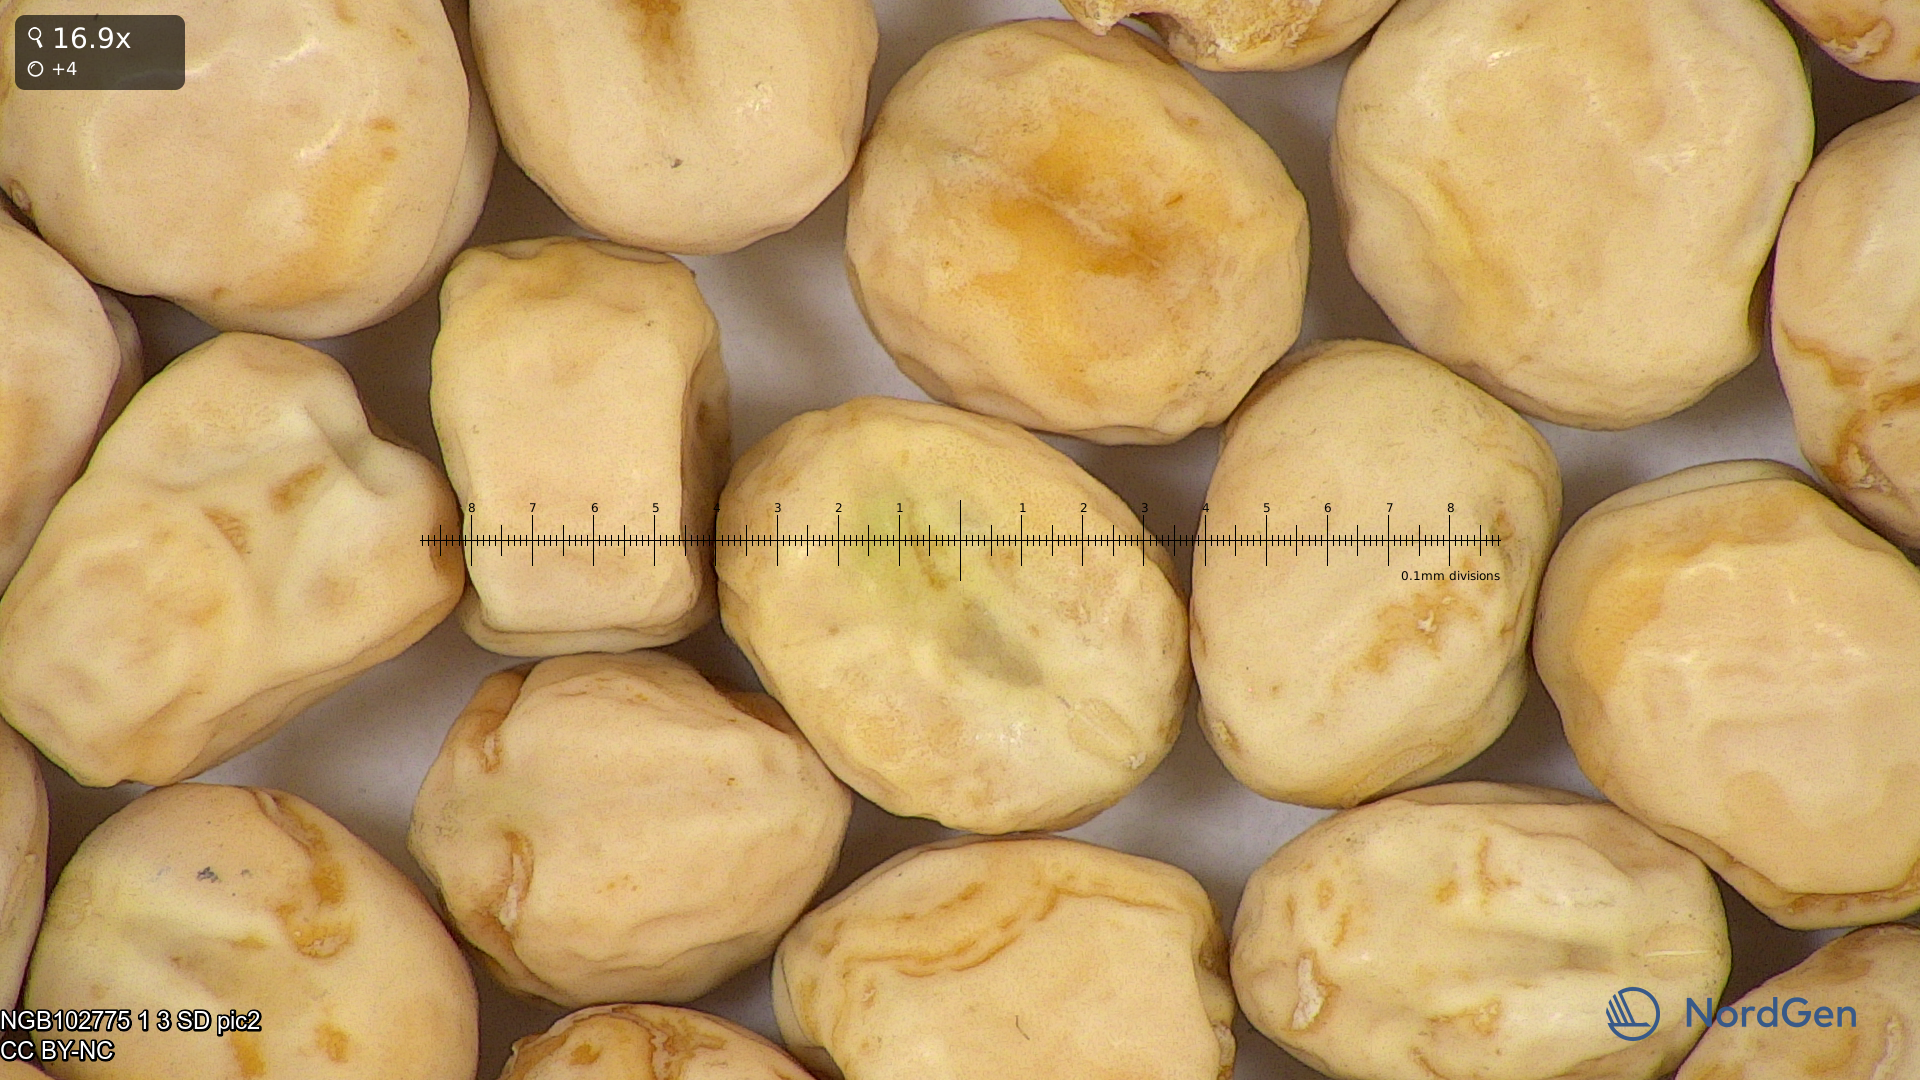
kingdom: Plantae
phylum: Tracheophyta
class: Magnoliopsida
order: Fabales
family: Fabaceae
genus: Lathyrus
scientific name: Lathyrus oleraceus
